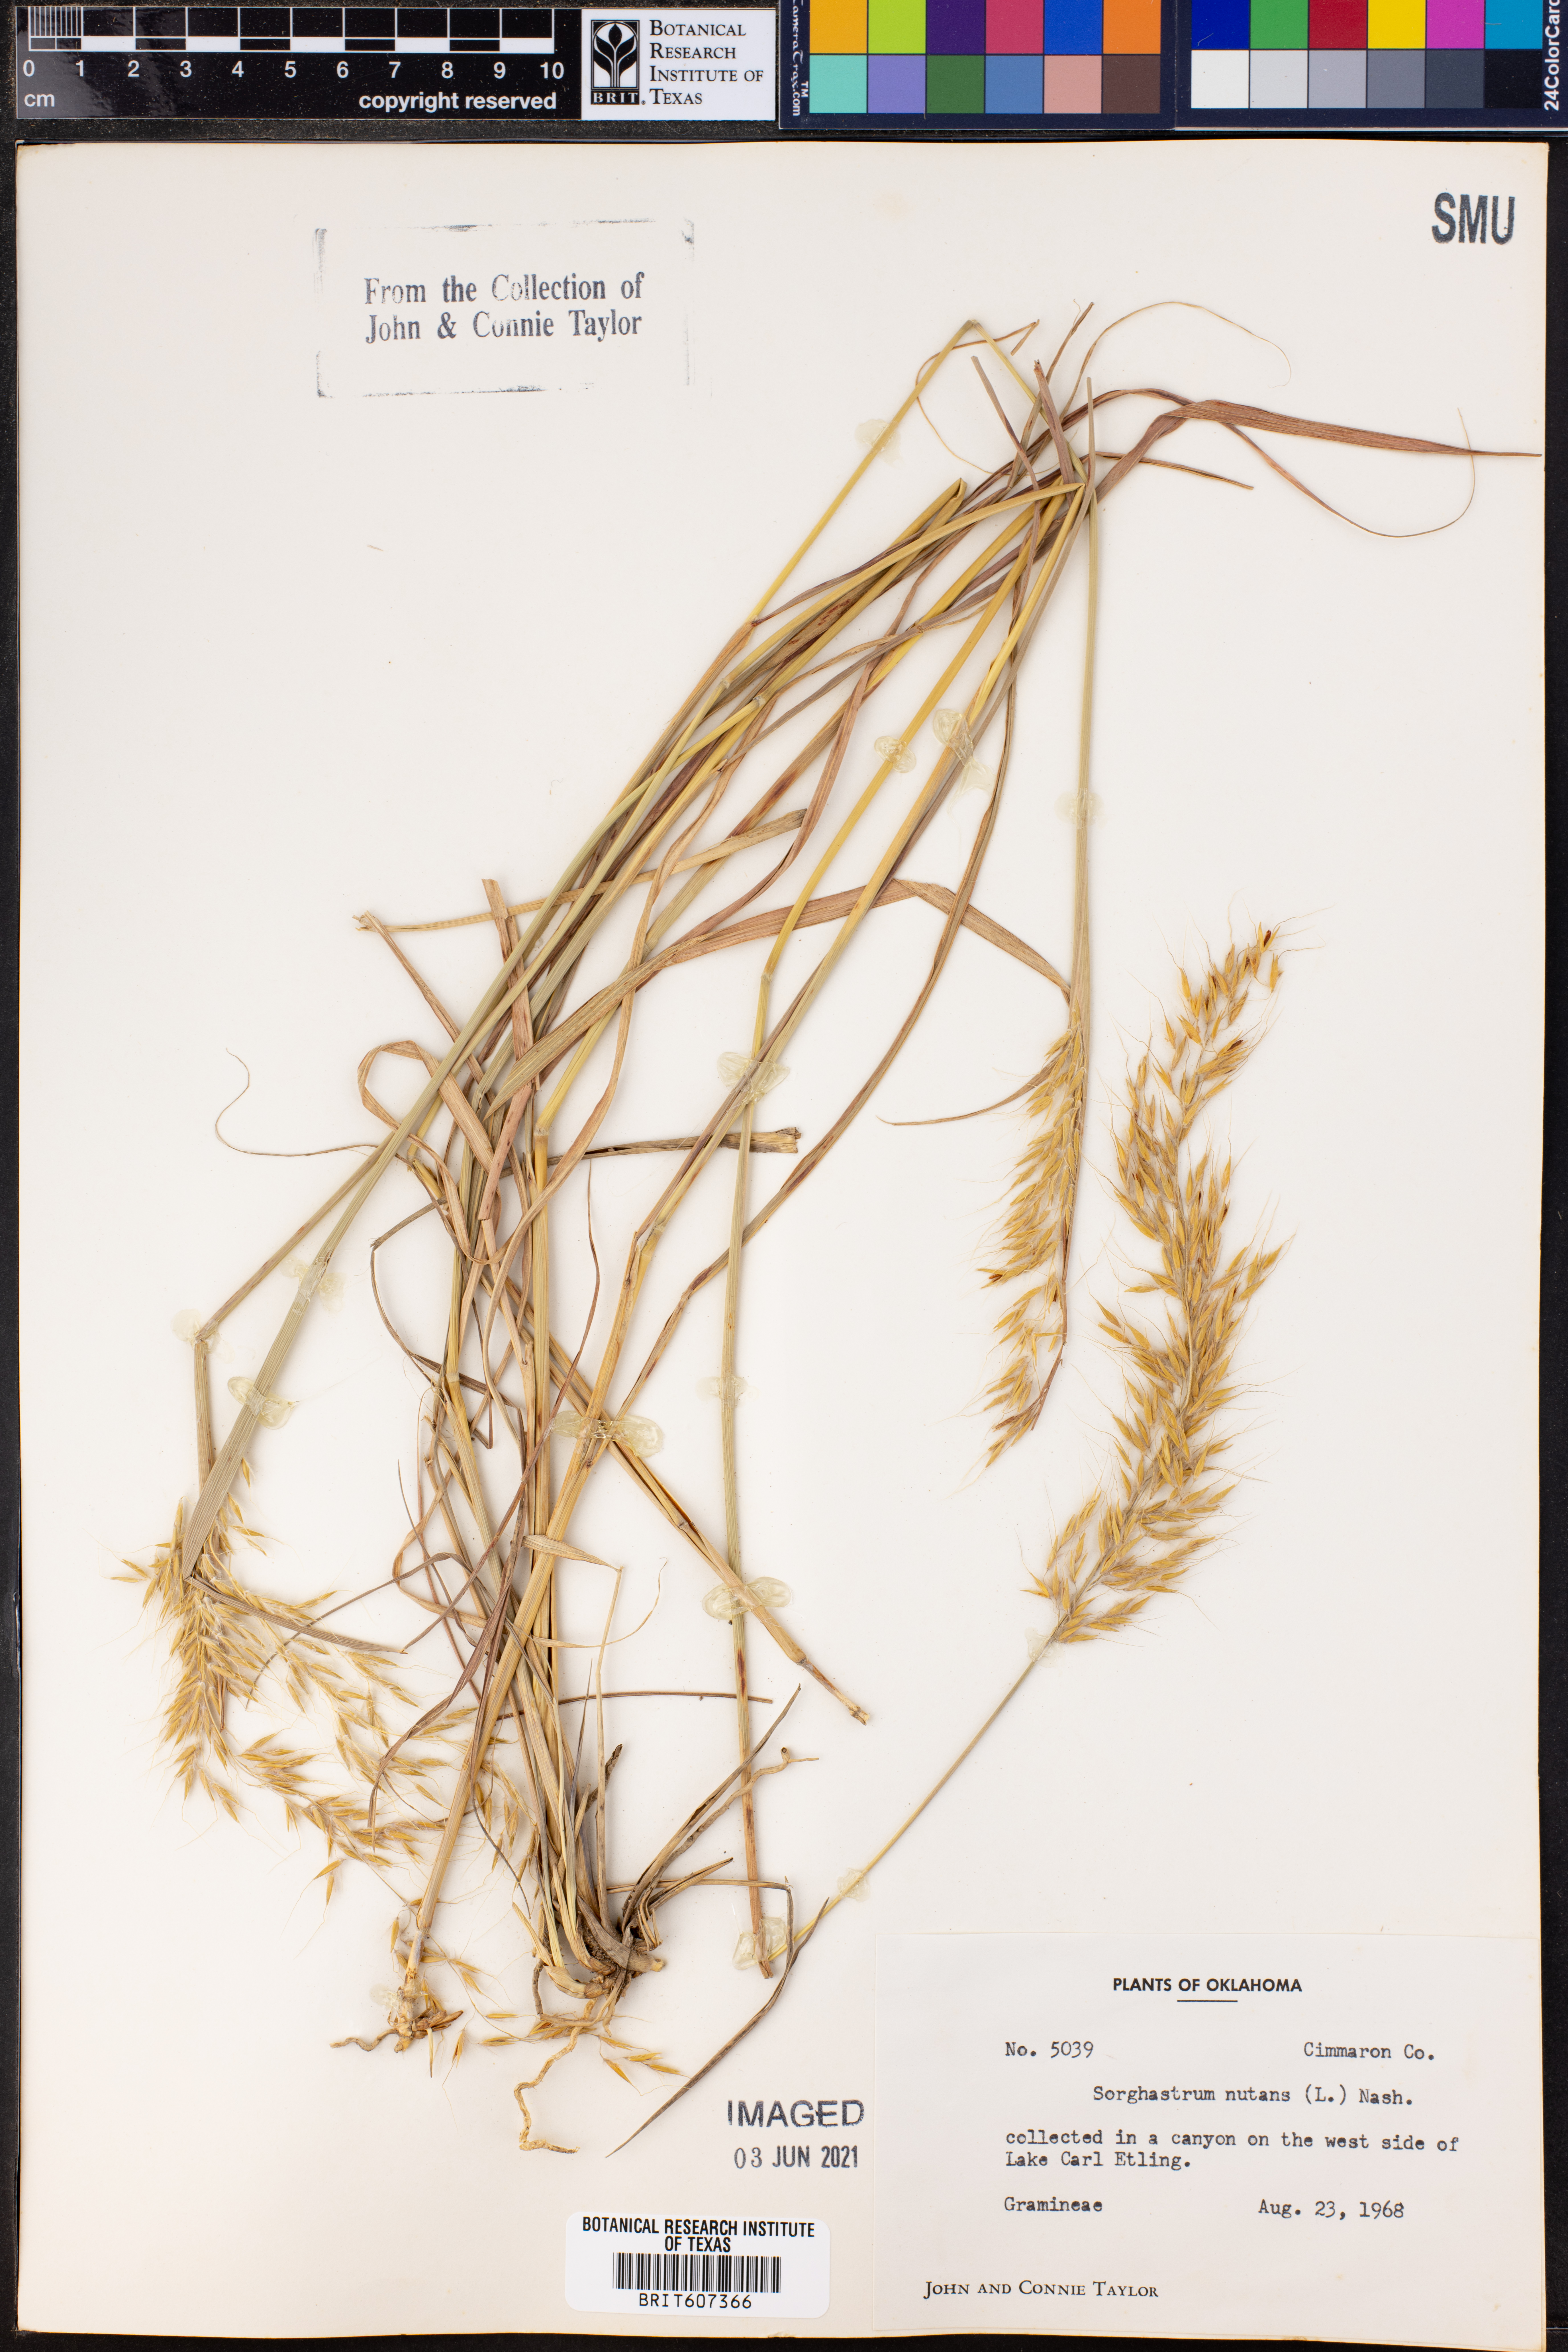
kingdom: Plantae
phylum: Tracheophyta
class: Liliopsida
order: Poales
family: Poaceae
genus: Sorghastrum
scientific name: Sorghastrum nutans
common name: Indian grass
